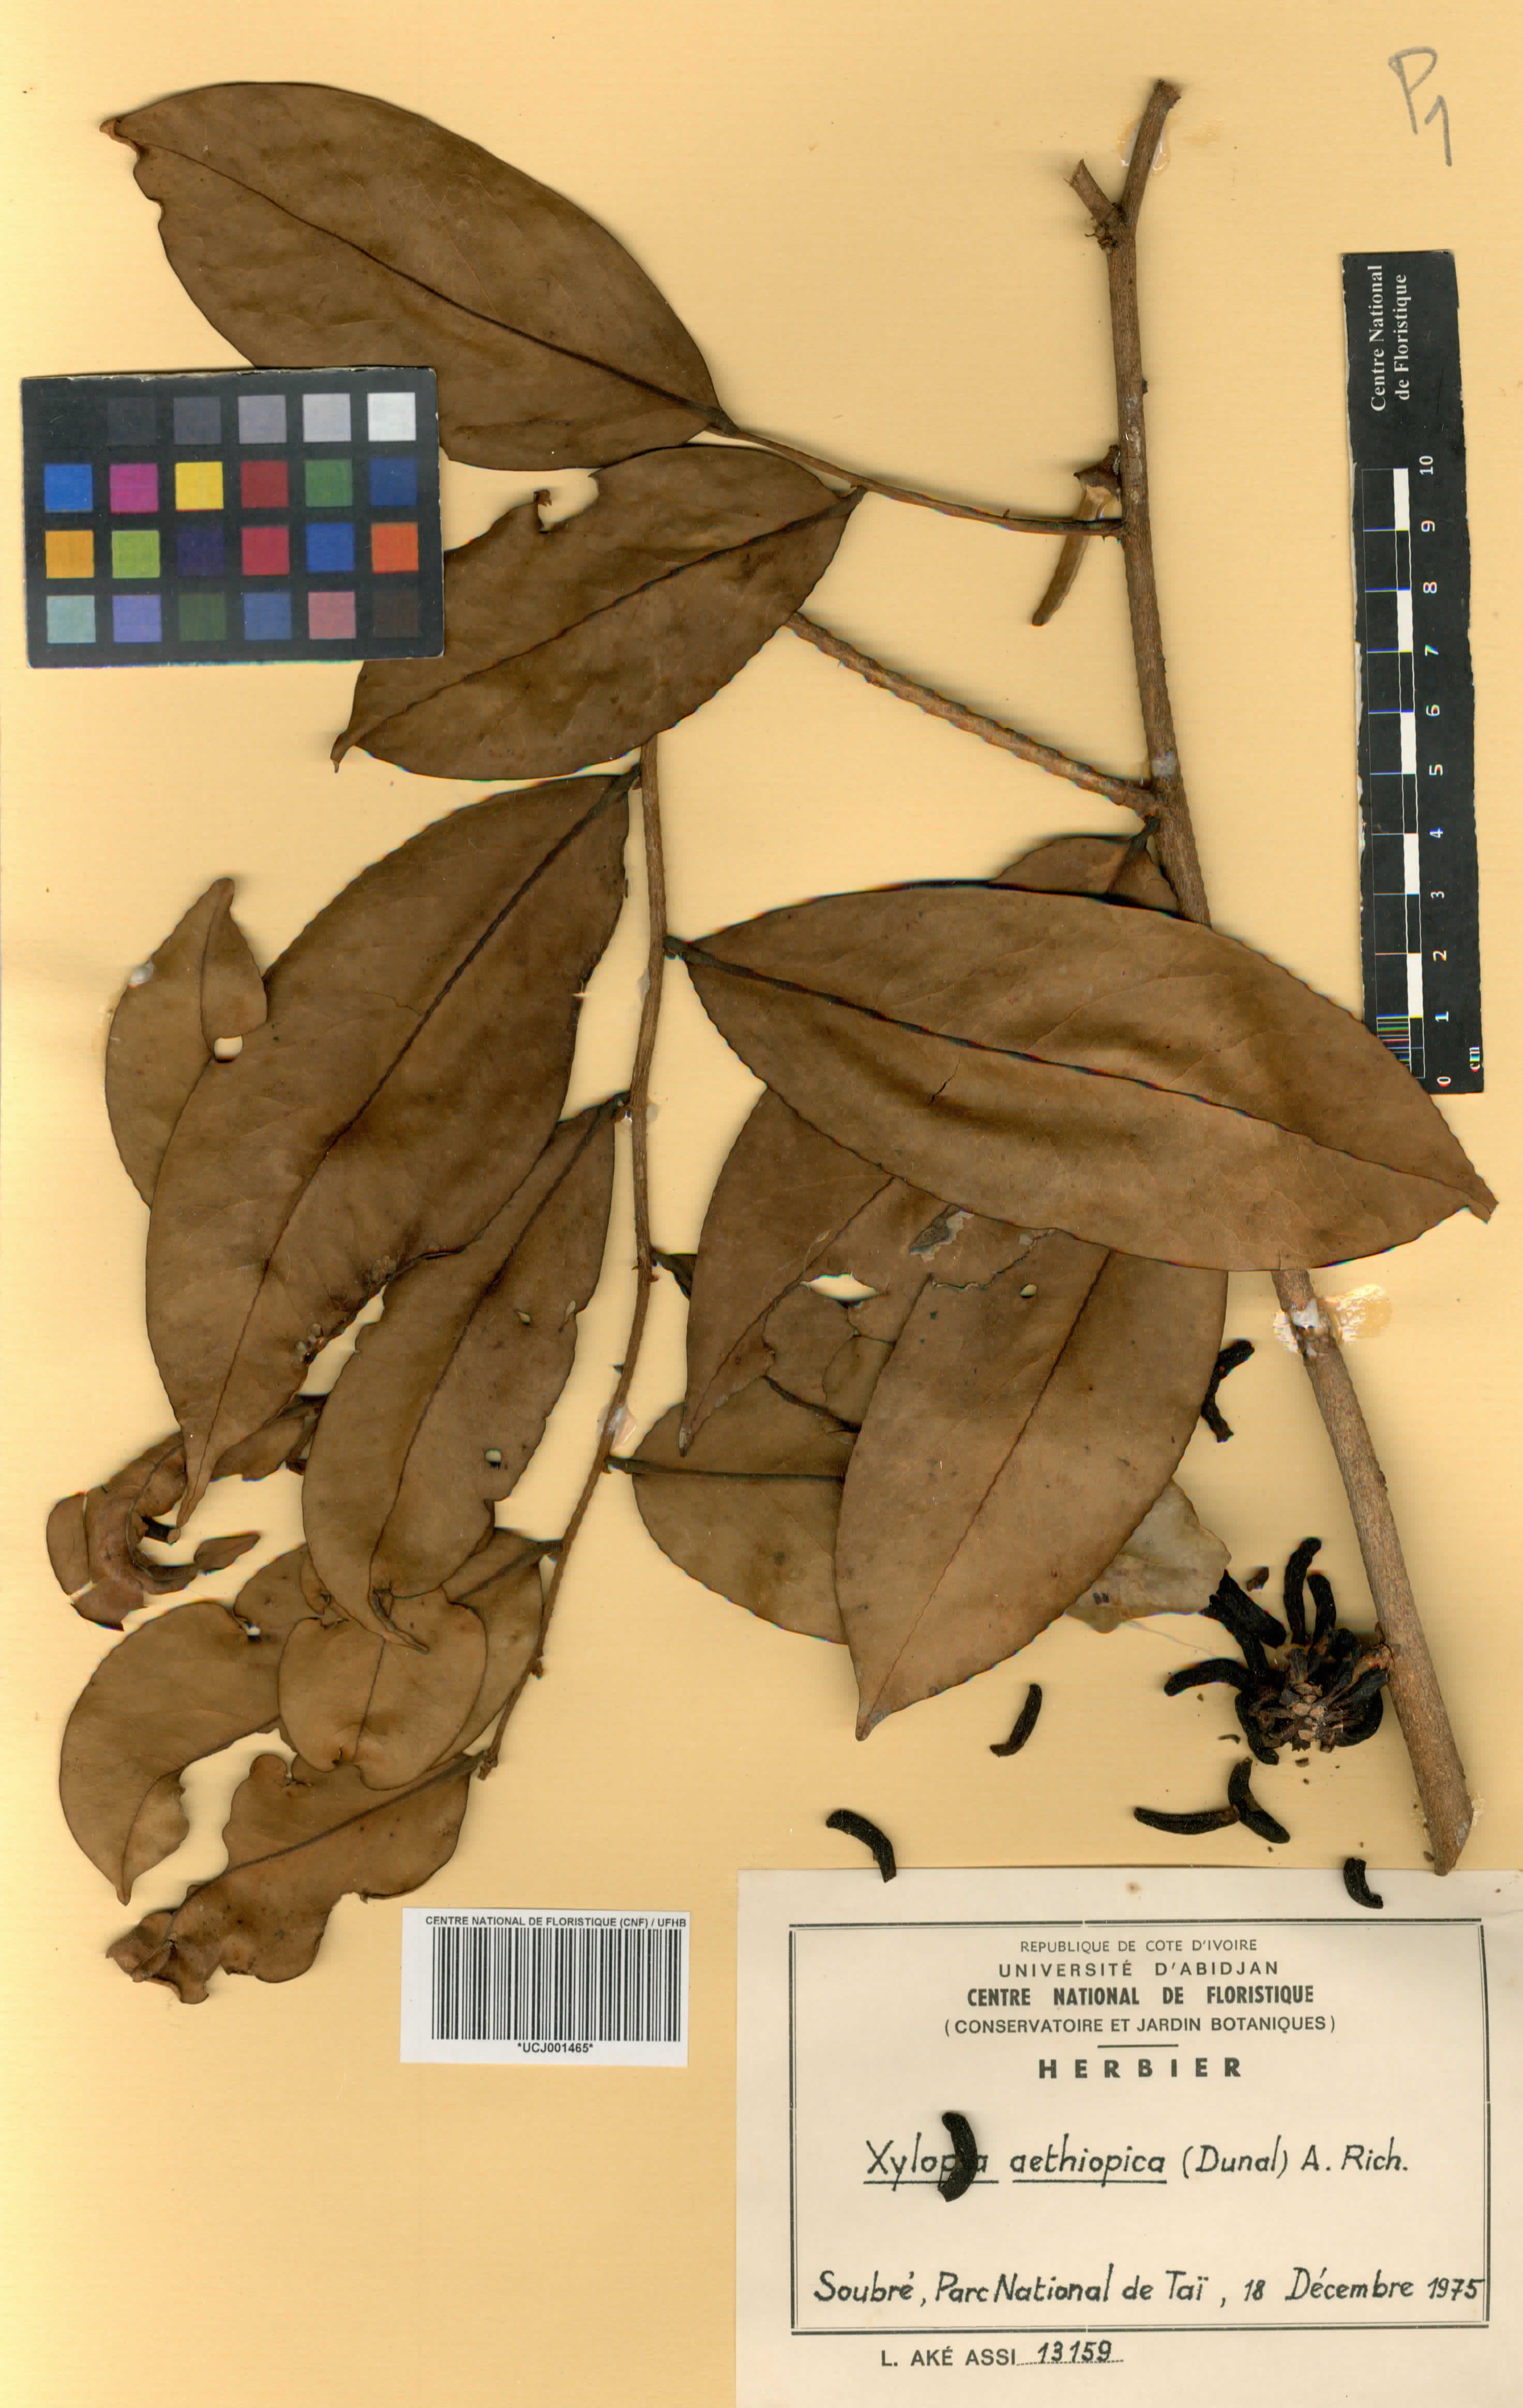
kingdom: Plantae
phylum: Tracheophyta
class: Magnoliopsida
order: Magnoliales
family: Annonaceae
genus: Xylopia
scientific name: Xylopia aethiopica
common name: Ethiopian-pepper
